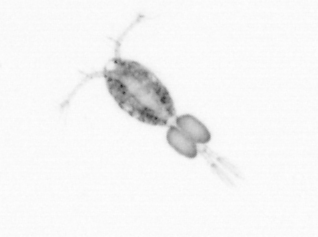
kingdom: Animalia
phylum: Arthropoda
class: Copepoda
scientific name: Copepoda
